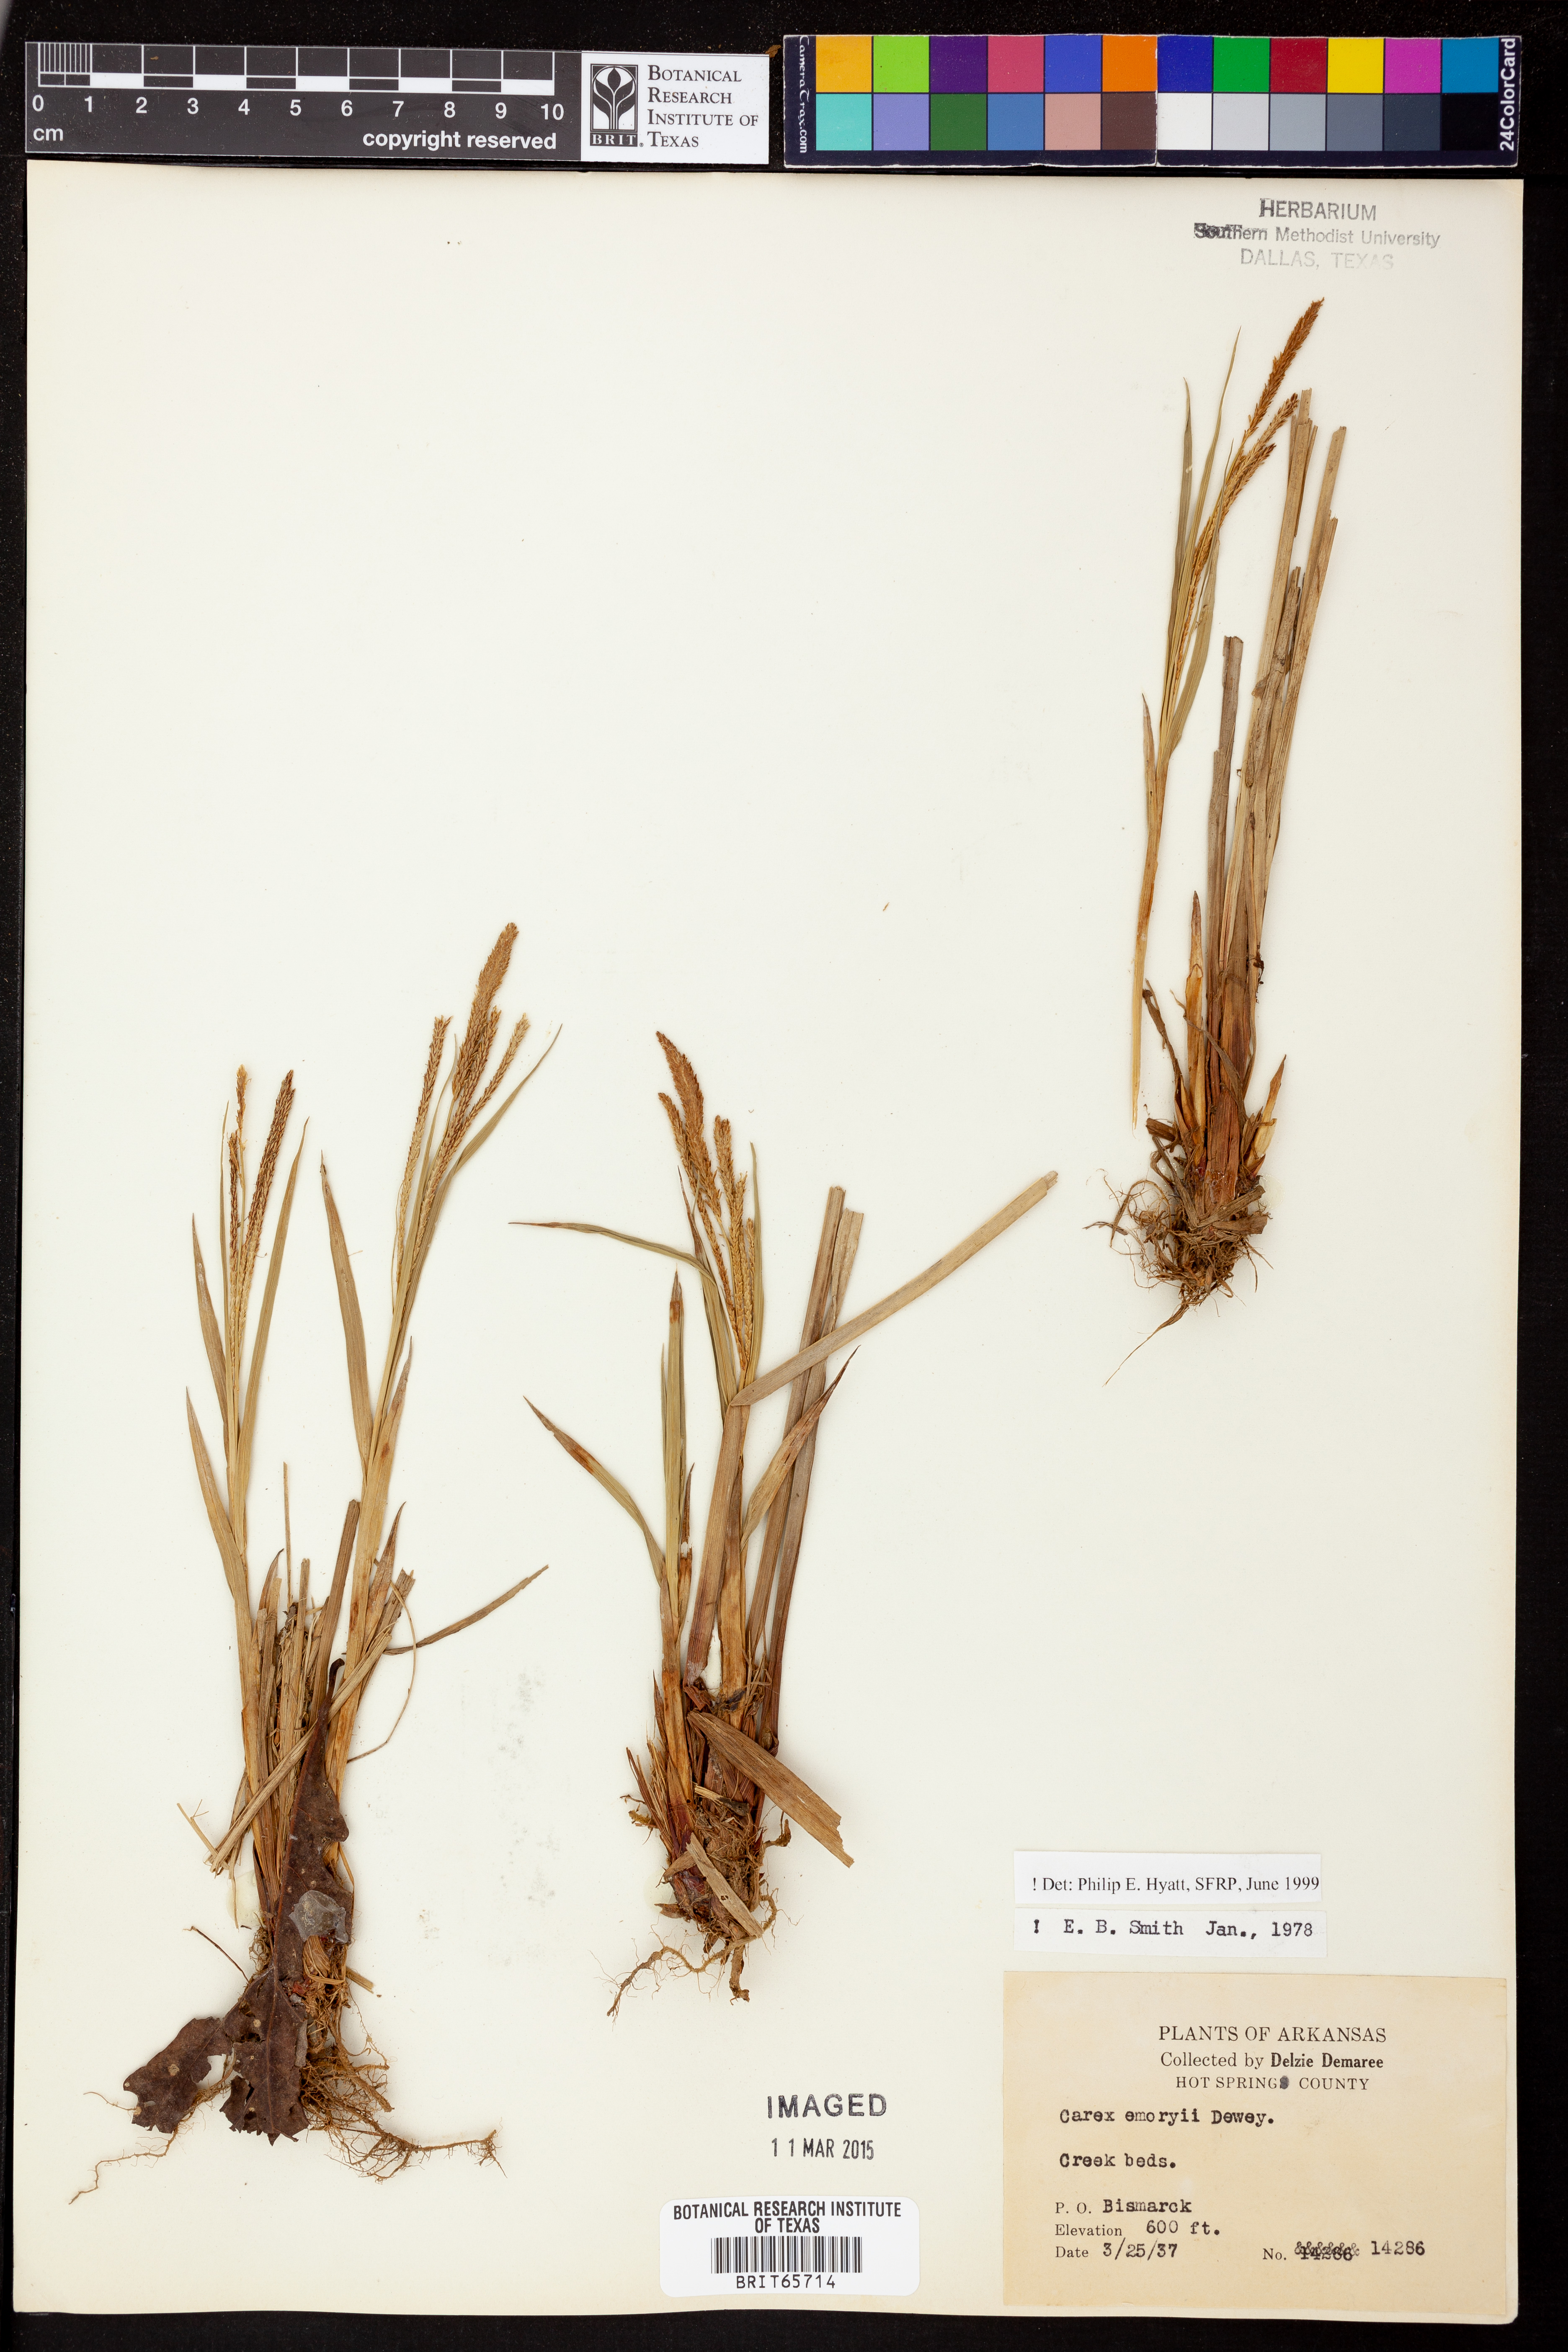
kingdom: Plantae
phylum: Tracheophyta
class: Liliopsida
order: Poales
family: Cyperaceae
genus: Carex
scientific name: Carex emoryi
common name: Emory's sedge
